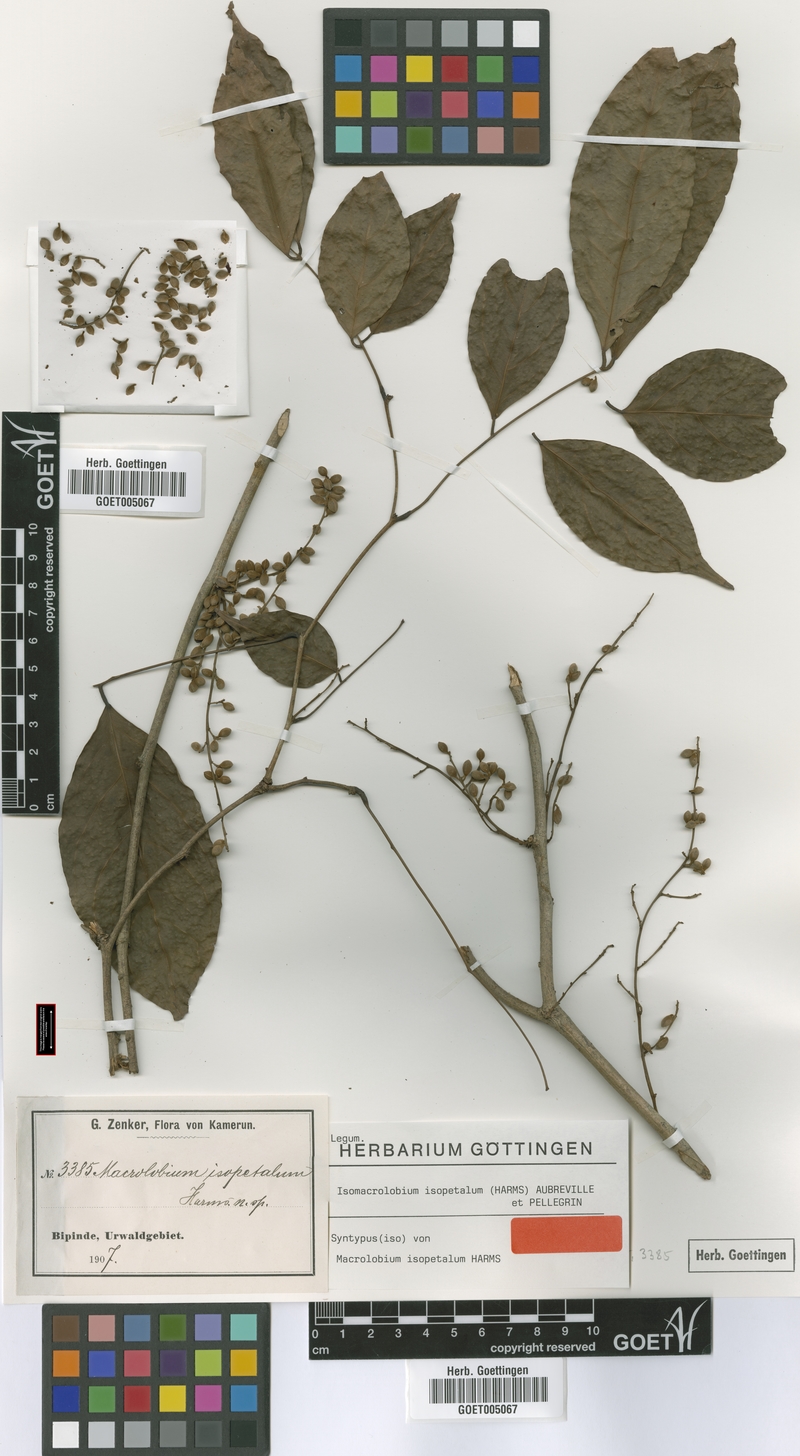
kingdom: Plantae
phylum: Tracheophyta
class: Magnoliopsida
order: Fabales
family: Fabaceae
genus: Englerodendron
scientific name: Englerodendron isopetalum
